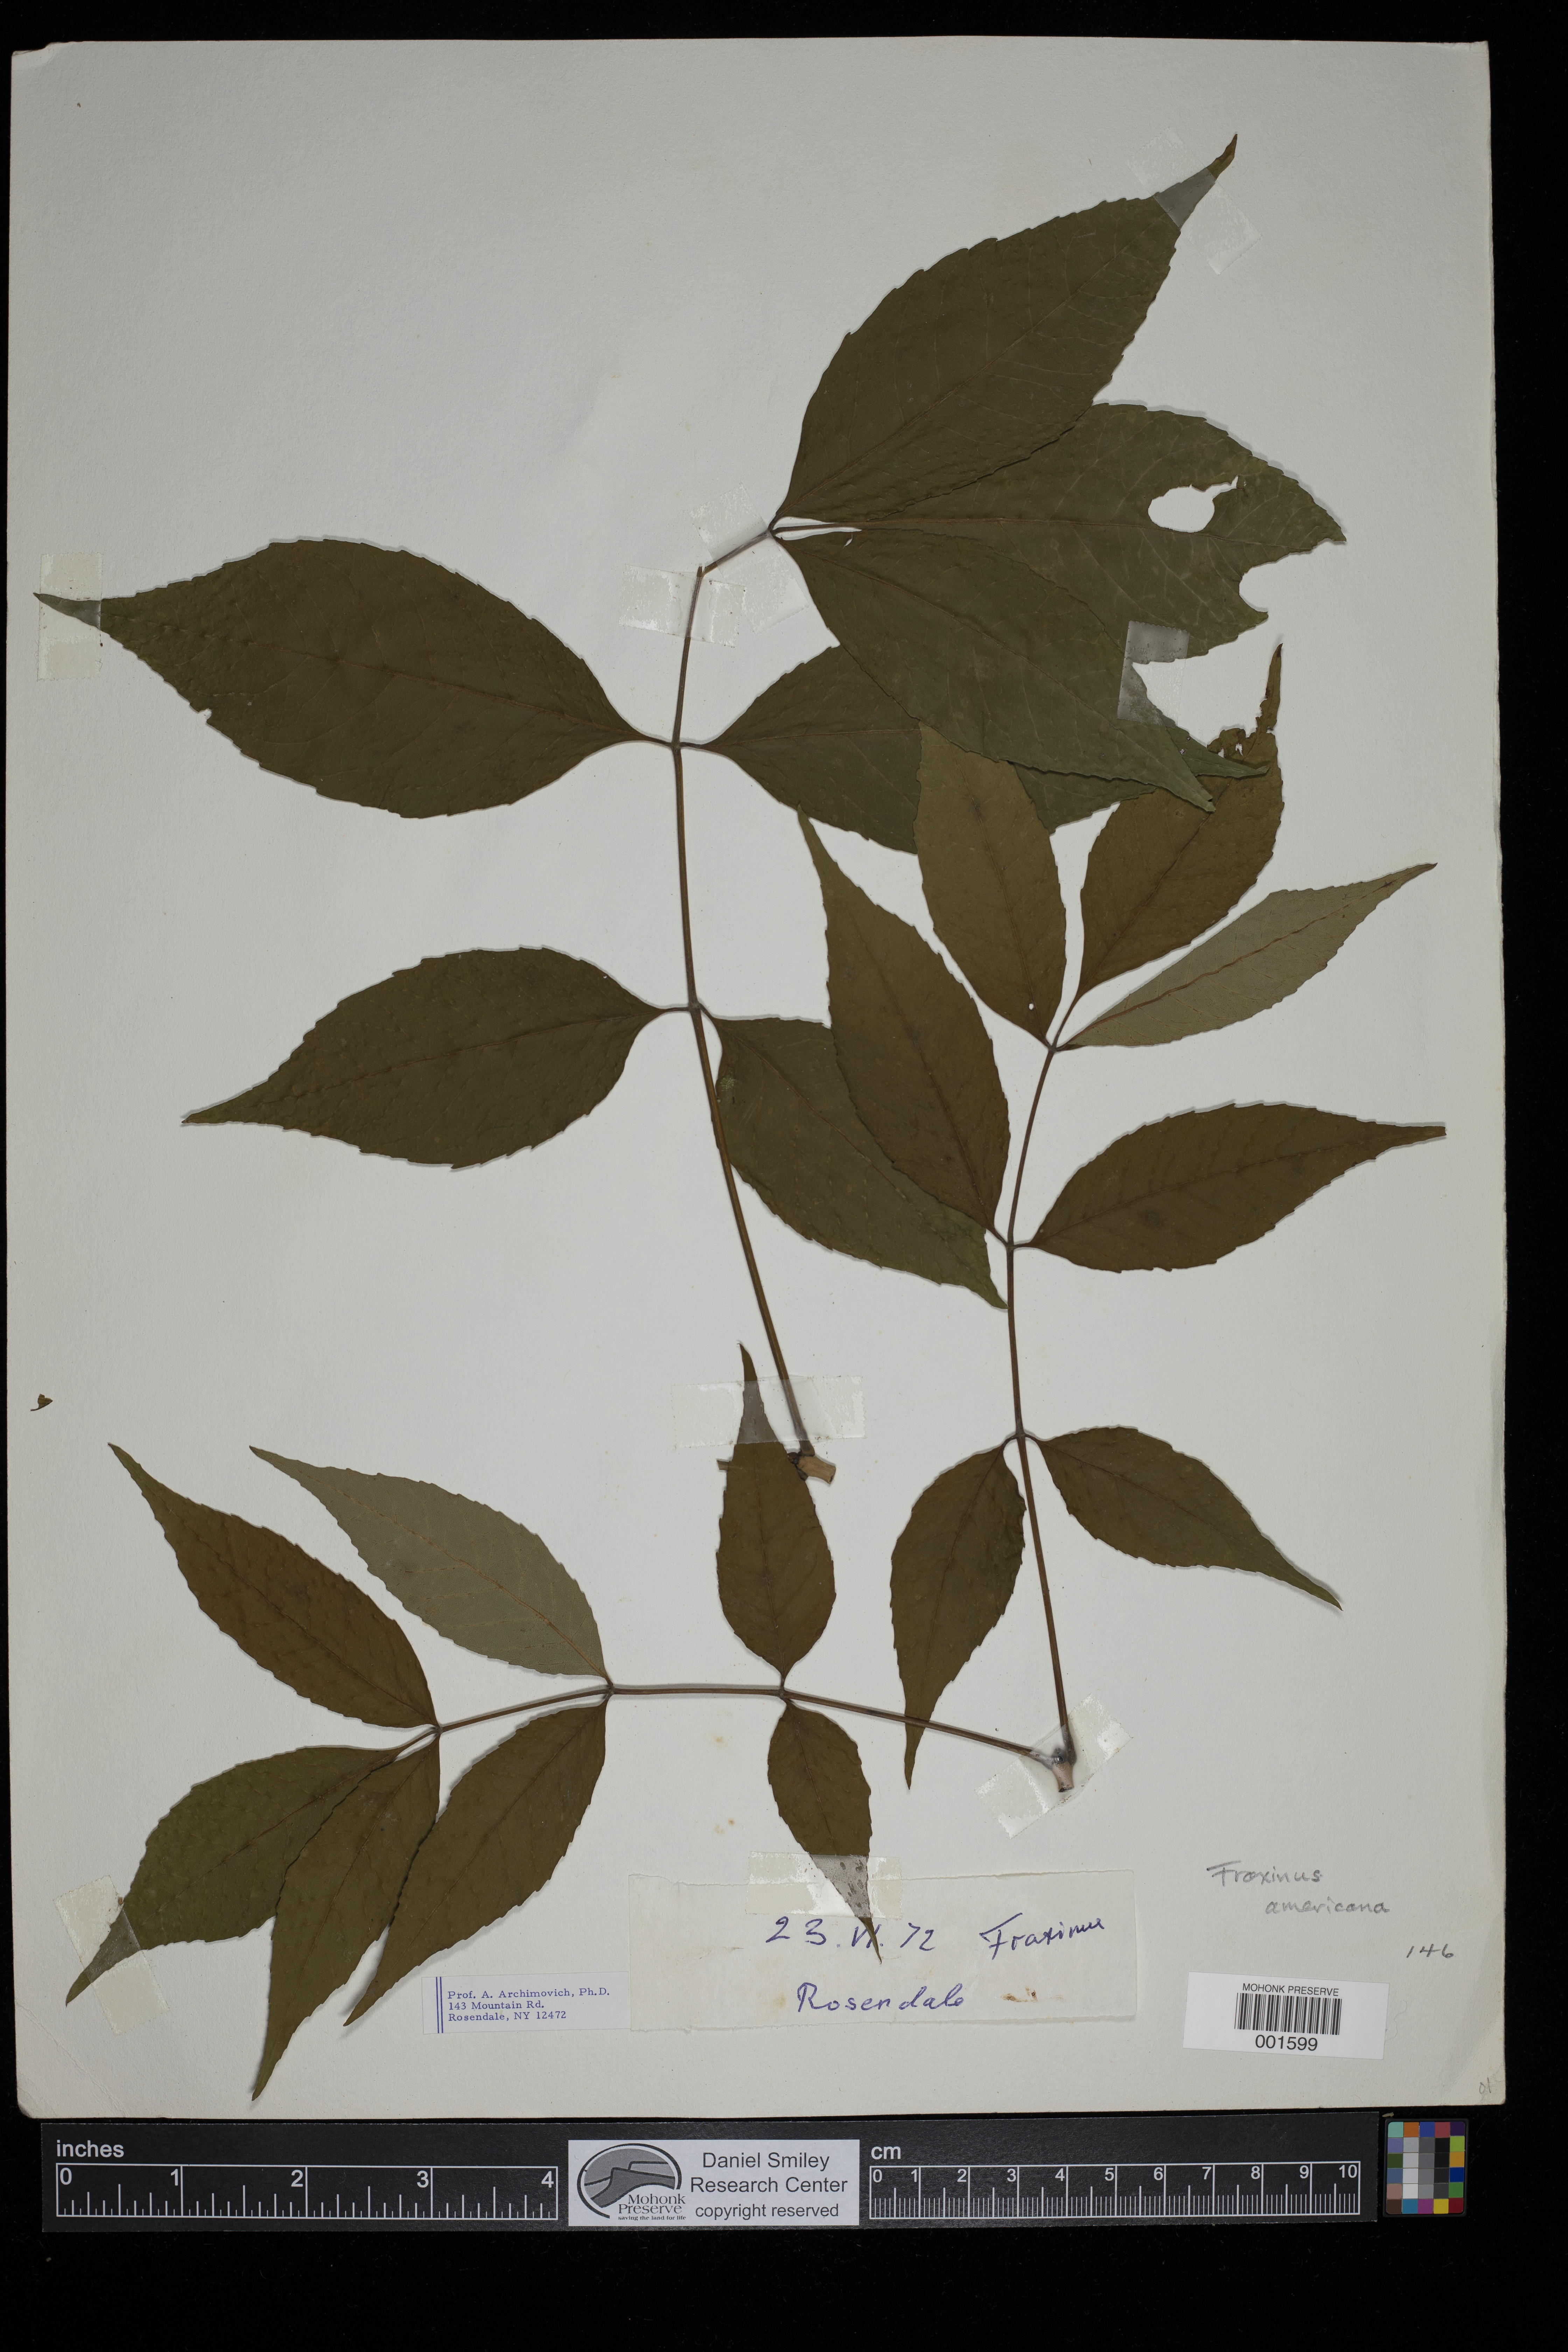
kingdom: Plantae
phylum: Tracheophyta
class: Magnoliopsida
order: Lamiales
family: Oleaceae
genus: Fraxinus
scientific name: Fraxinus americana
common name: White ash
